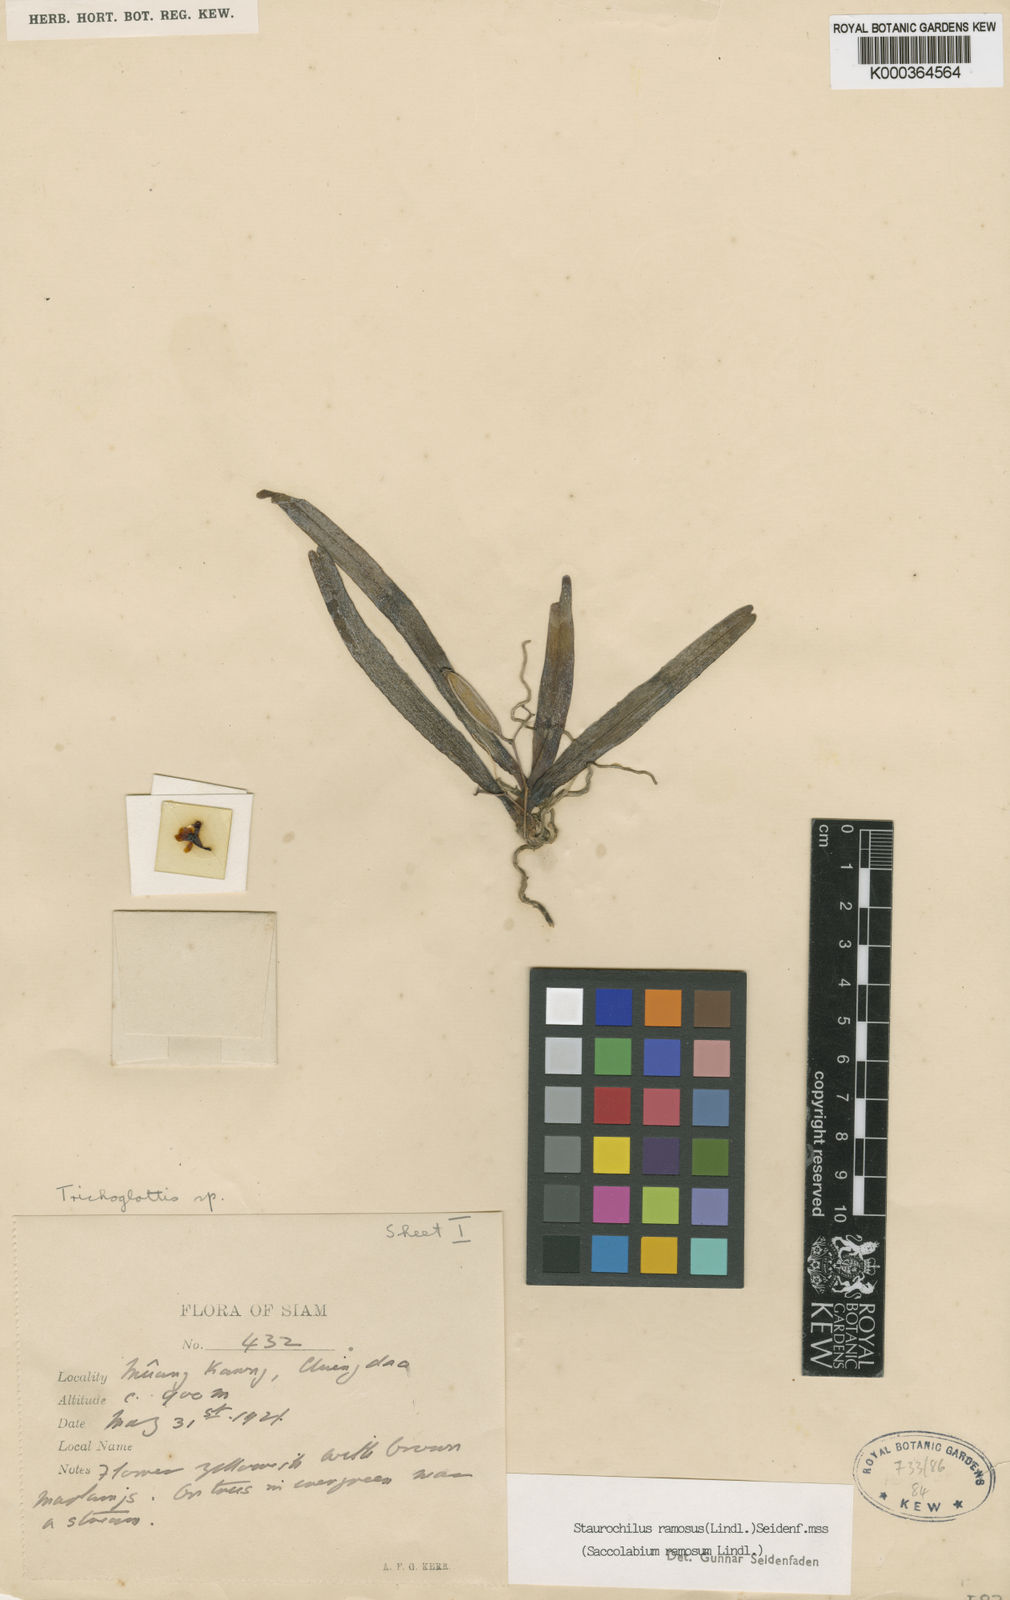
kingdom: Plantae
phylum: Tracheophyta
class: Liliopsida
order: Asparagales
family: Orchidaceae
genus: Trichoglottis
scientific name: Trichoglottis
